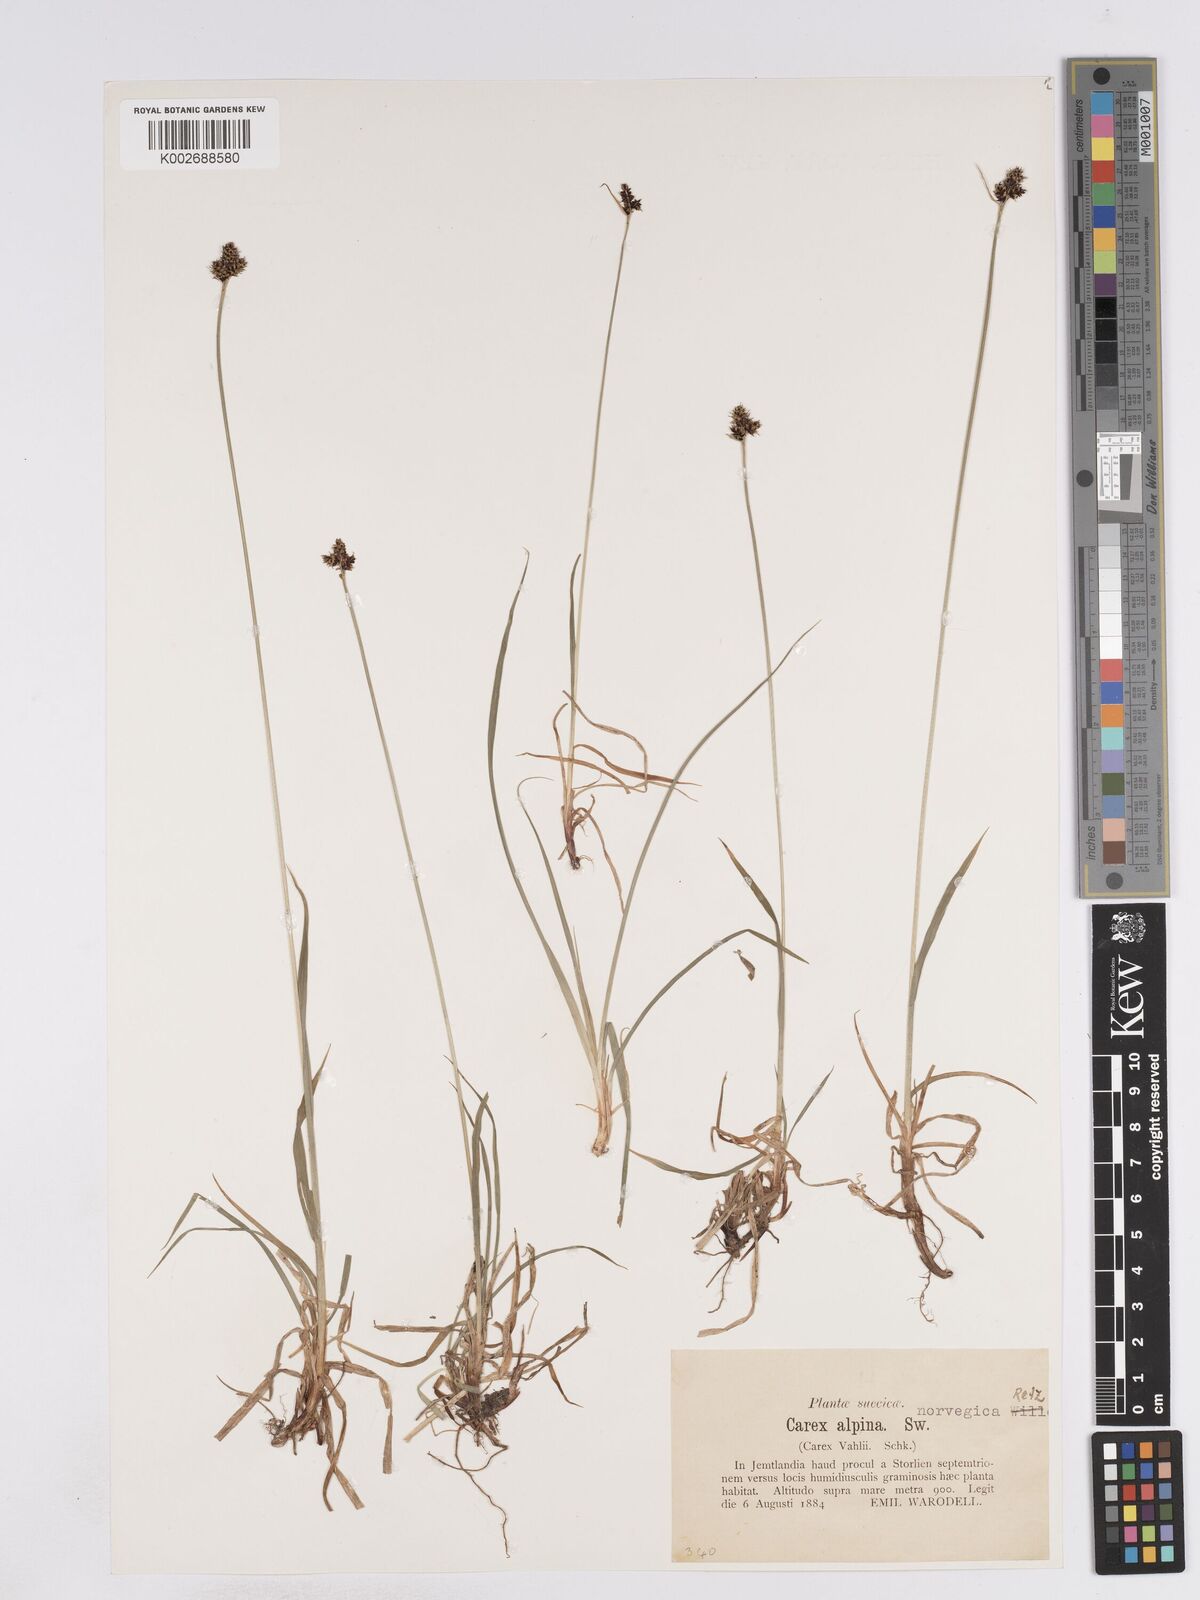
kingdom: Plantae
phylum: Tracheophyta
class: Liliopsida
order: Poales
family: Cyperaceae
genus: Carex
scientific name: Carex norvegica
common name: Close-headed alpine-sedge
